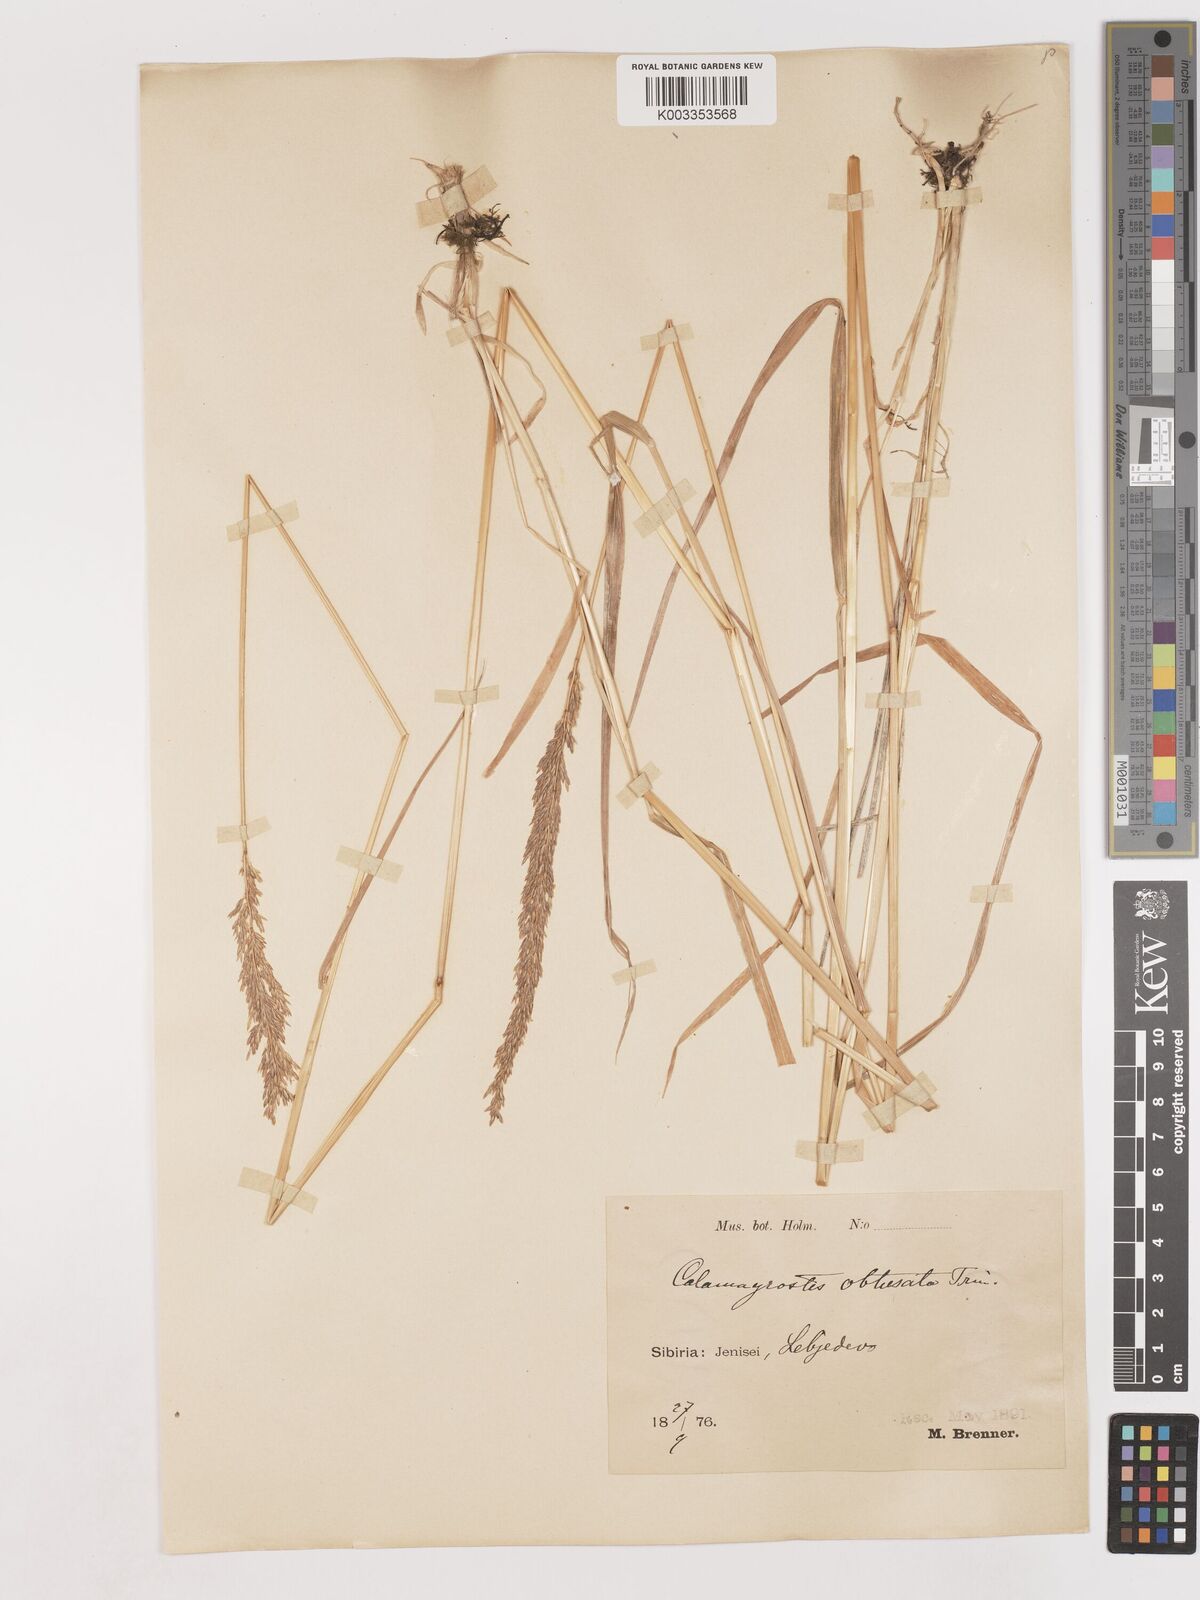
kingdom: Plantae
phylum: Tracheophyta
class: Liliopsida
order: Poales
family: Poaceae
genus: Cinnagrostis
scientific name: Cinnagrostis spicigera
